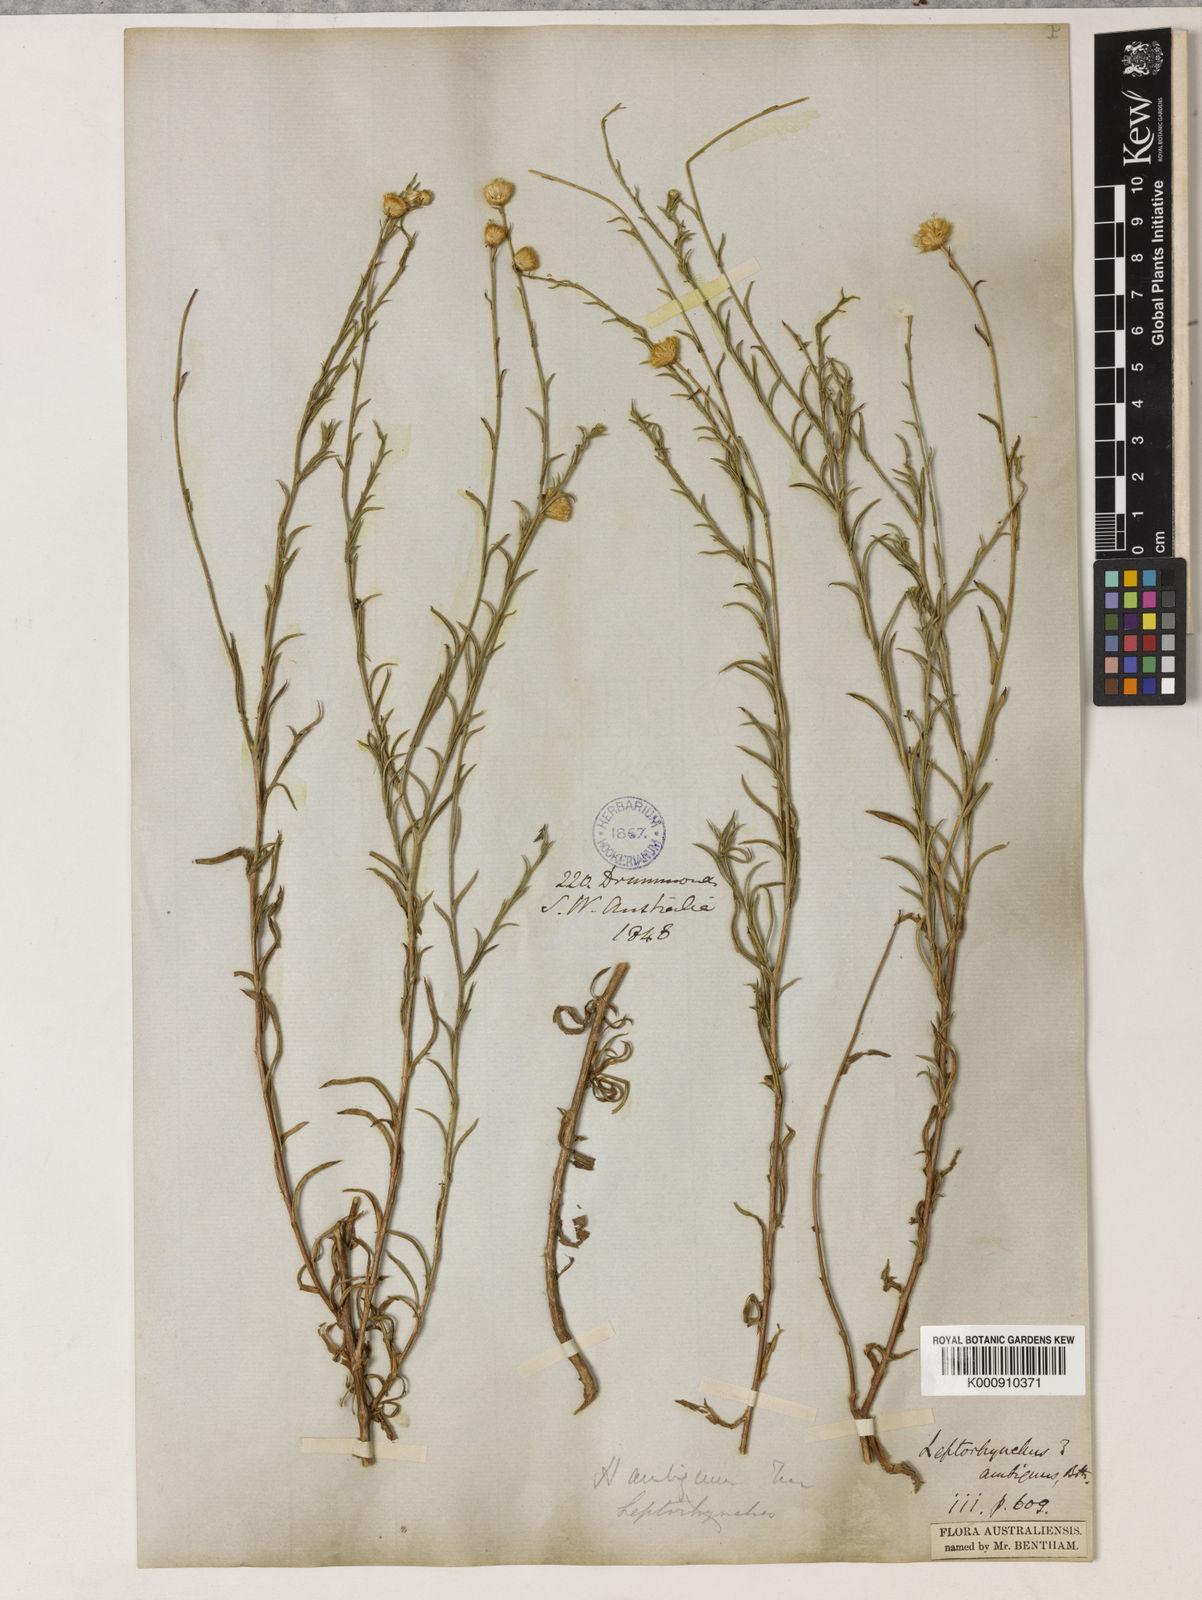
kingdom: Plantae
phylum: Tracheophyta
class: Magnoliopsida
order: Asterales
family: Asteraceae
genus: Leiocarpa
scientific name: Leiocarpa semicalva
